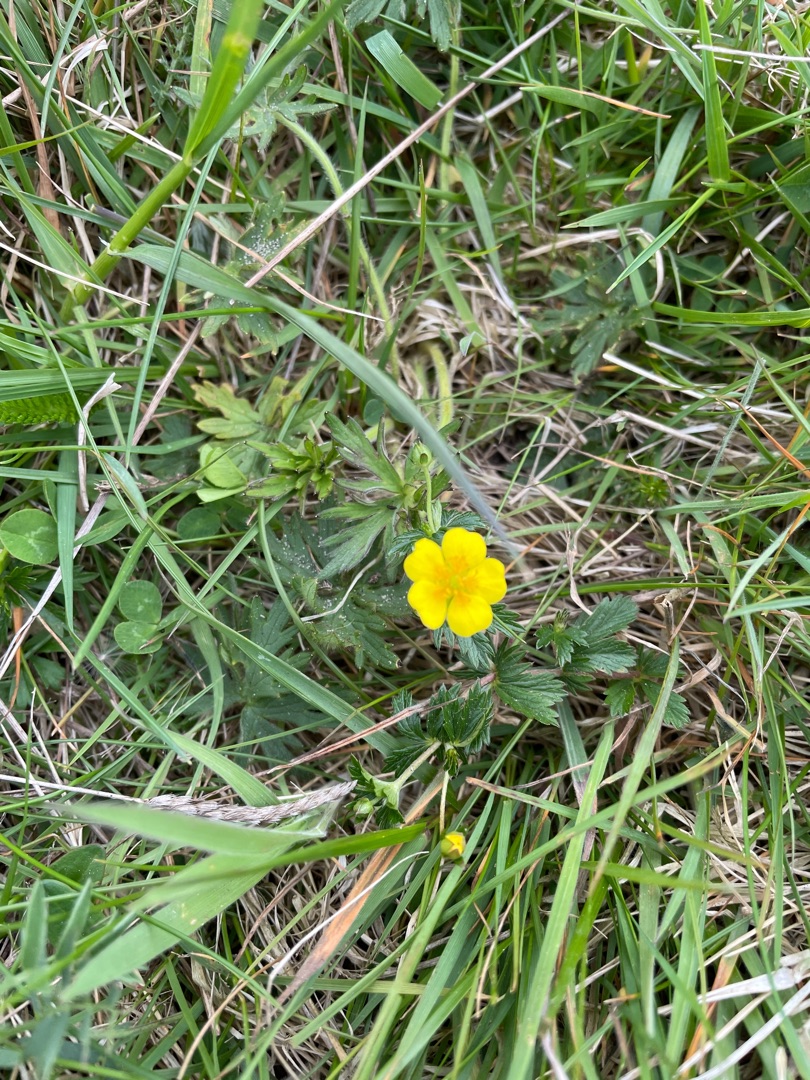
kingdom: Plantae
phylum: Tracheophyta
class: Magnoliopsida
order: Rosales
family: Rosaceae
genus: Potentilla
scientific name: Potentilla erecta
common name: Tormentil
